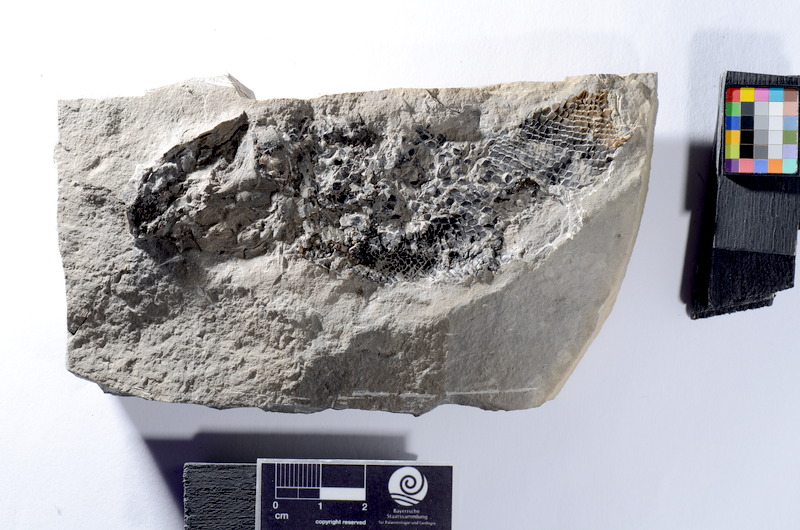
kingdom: Animalia
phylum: Chordata
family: Ophiopsiellidae
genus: Heterolepidotus
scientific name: Heterolepidotus
